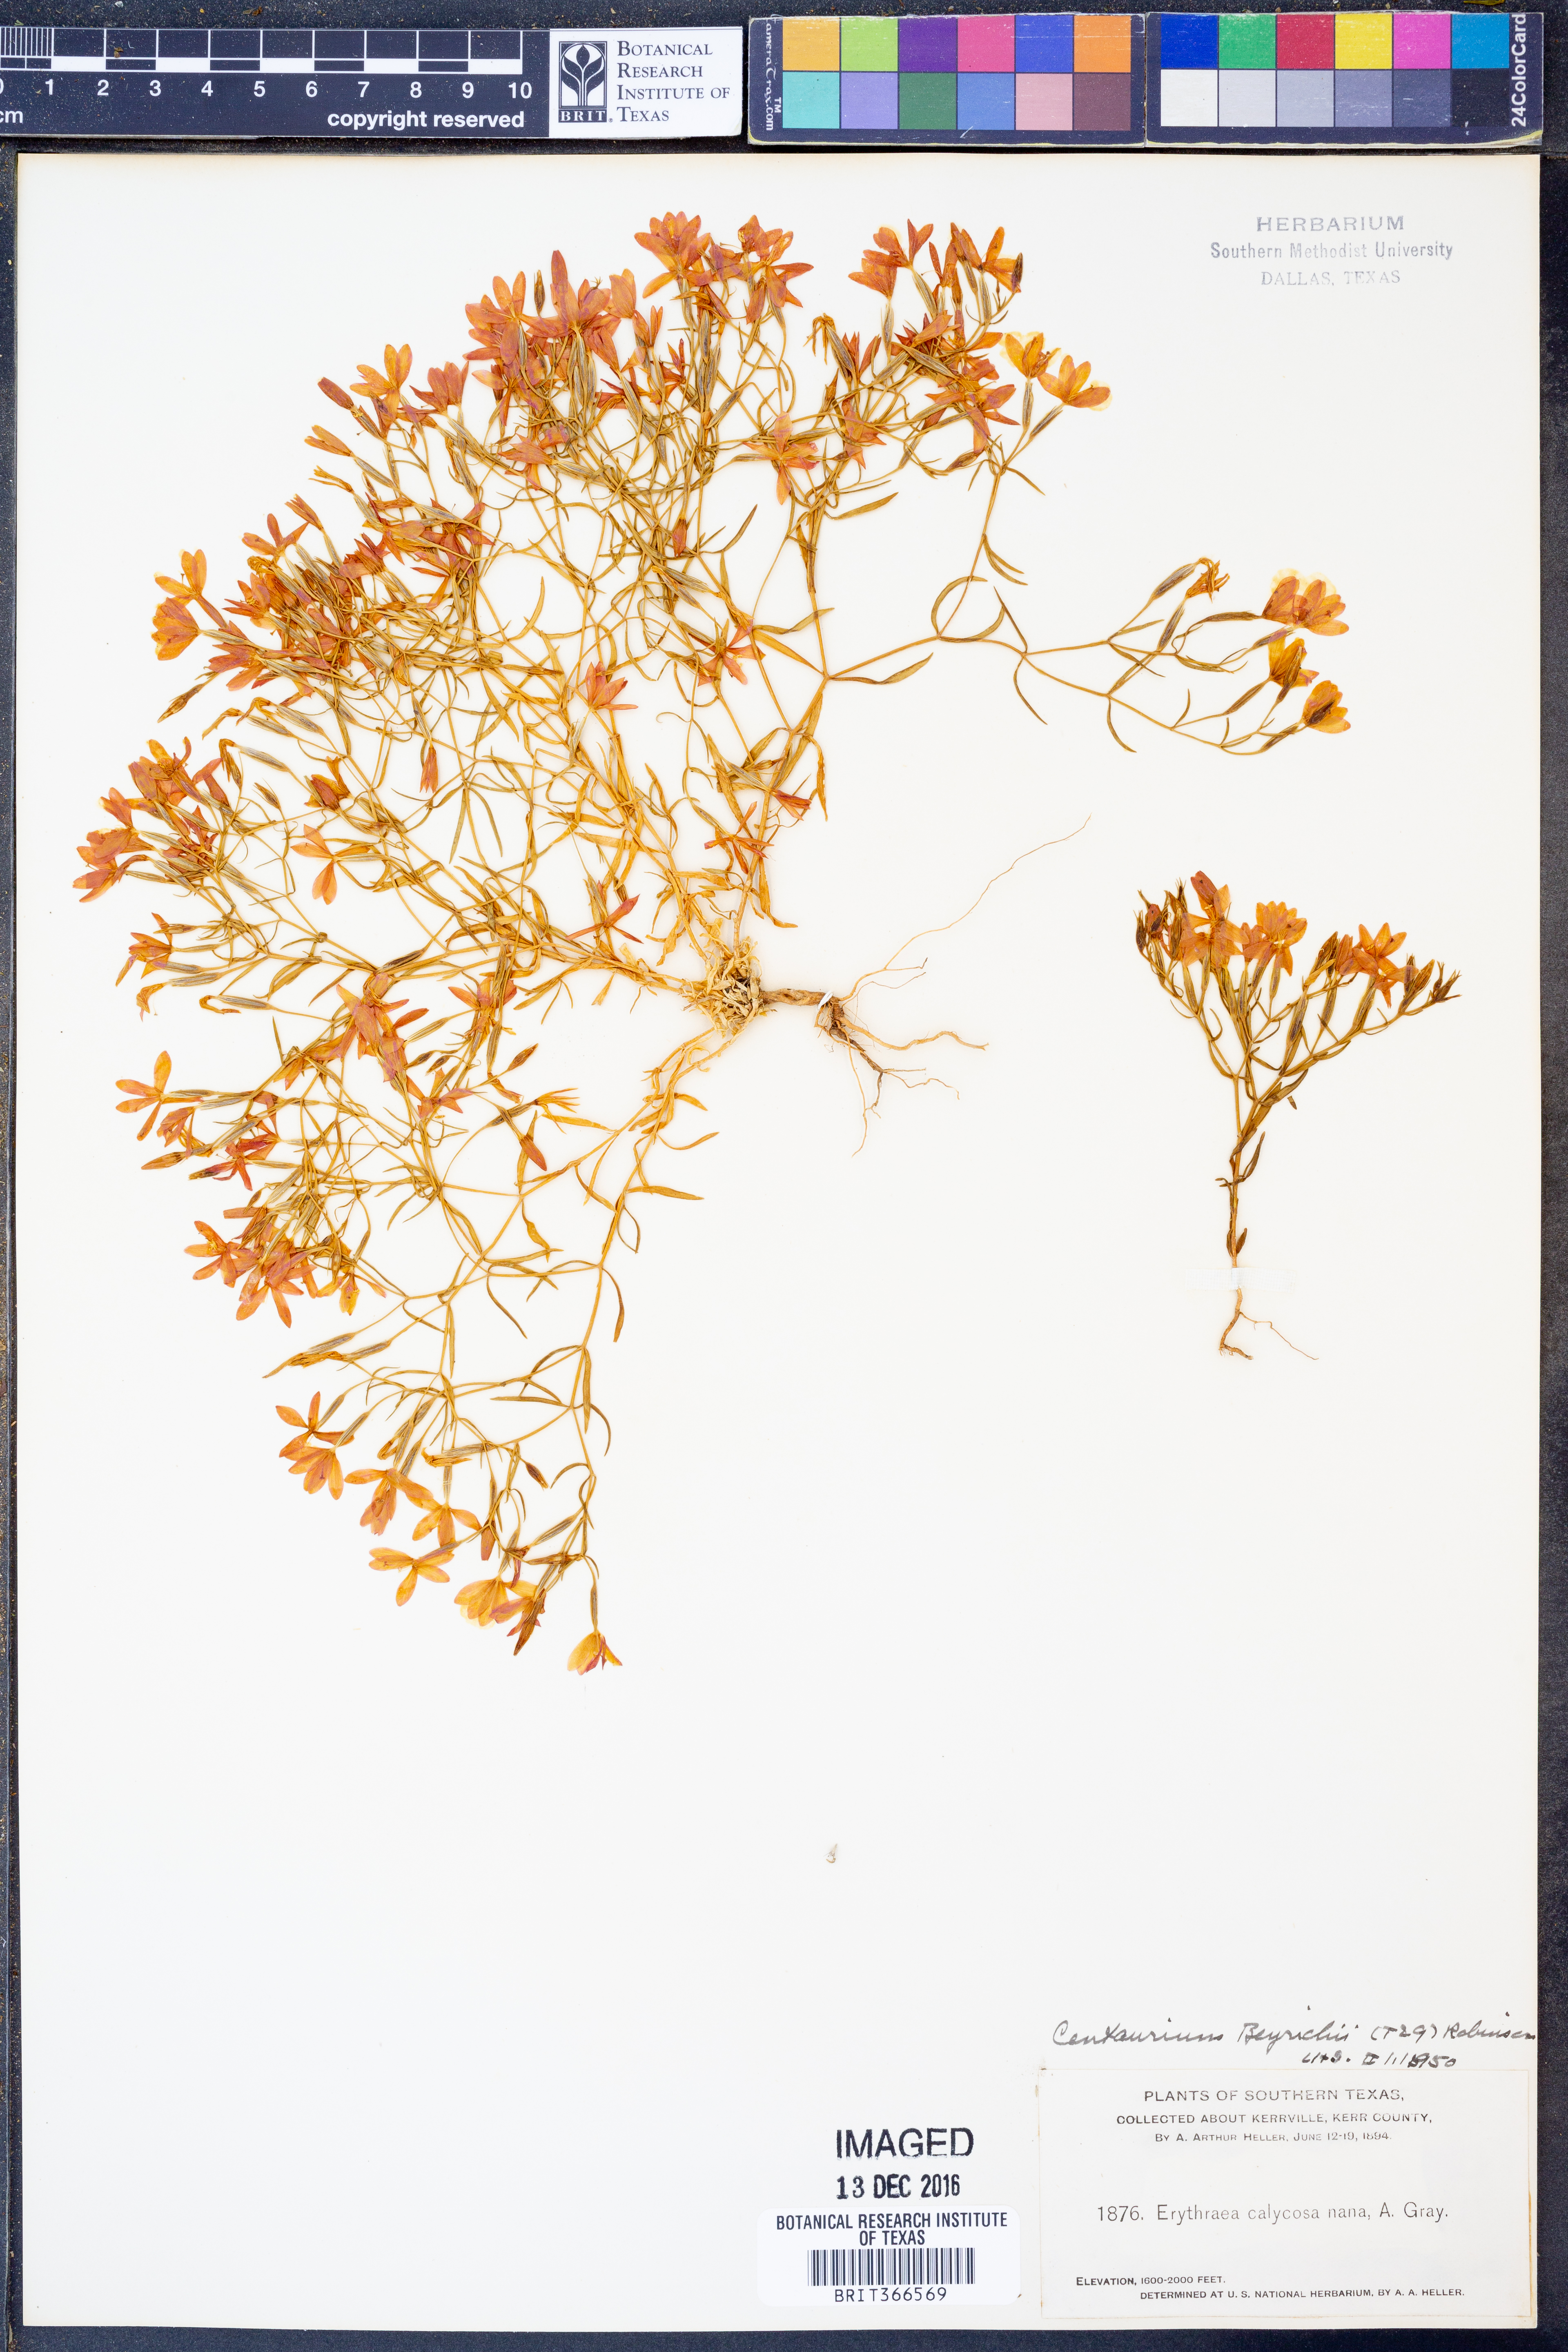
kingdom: Plantae
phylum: Tracheophyta
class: Magnoliopsida
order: Gentianales
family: Gentianaceae
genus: Zeltnera
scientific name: Zeltnera beyrichii
